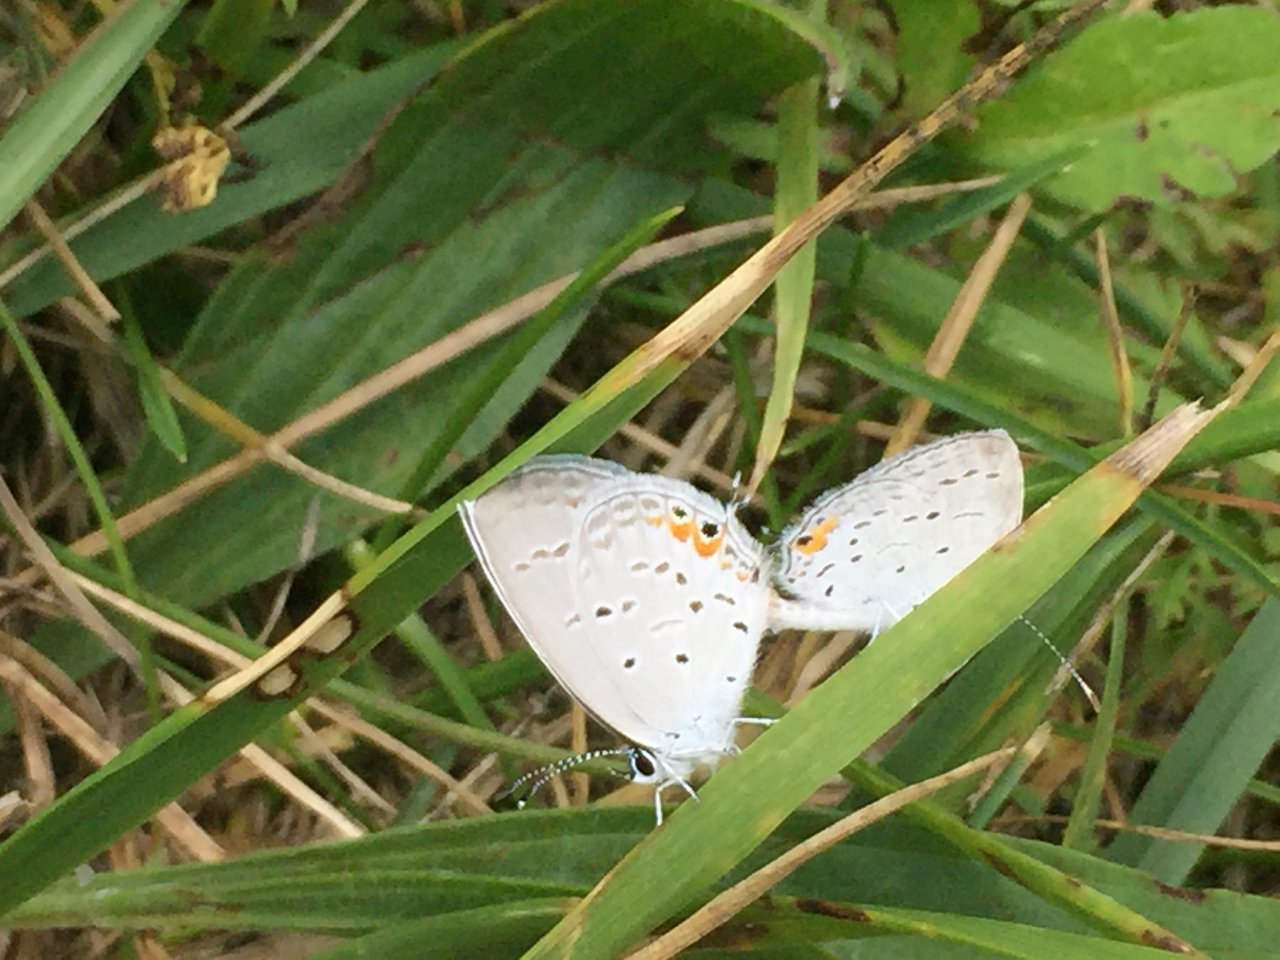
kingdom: Animalia
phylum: Arthropoda
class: Insecta
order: Lepidoptera
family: Lycaenidae
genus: Elkalyce
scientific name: Elkalyce comyntas
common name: Eastern Tailed-Blue
